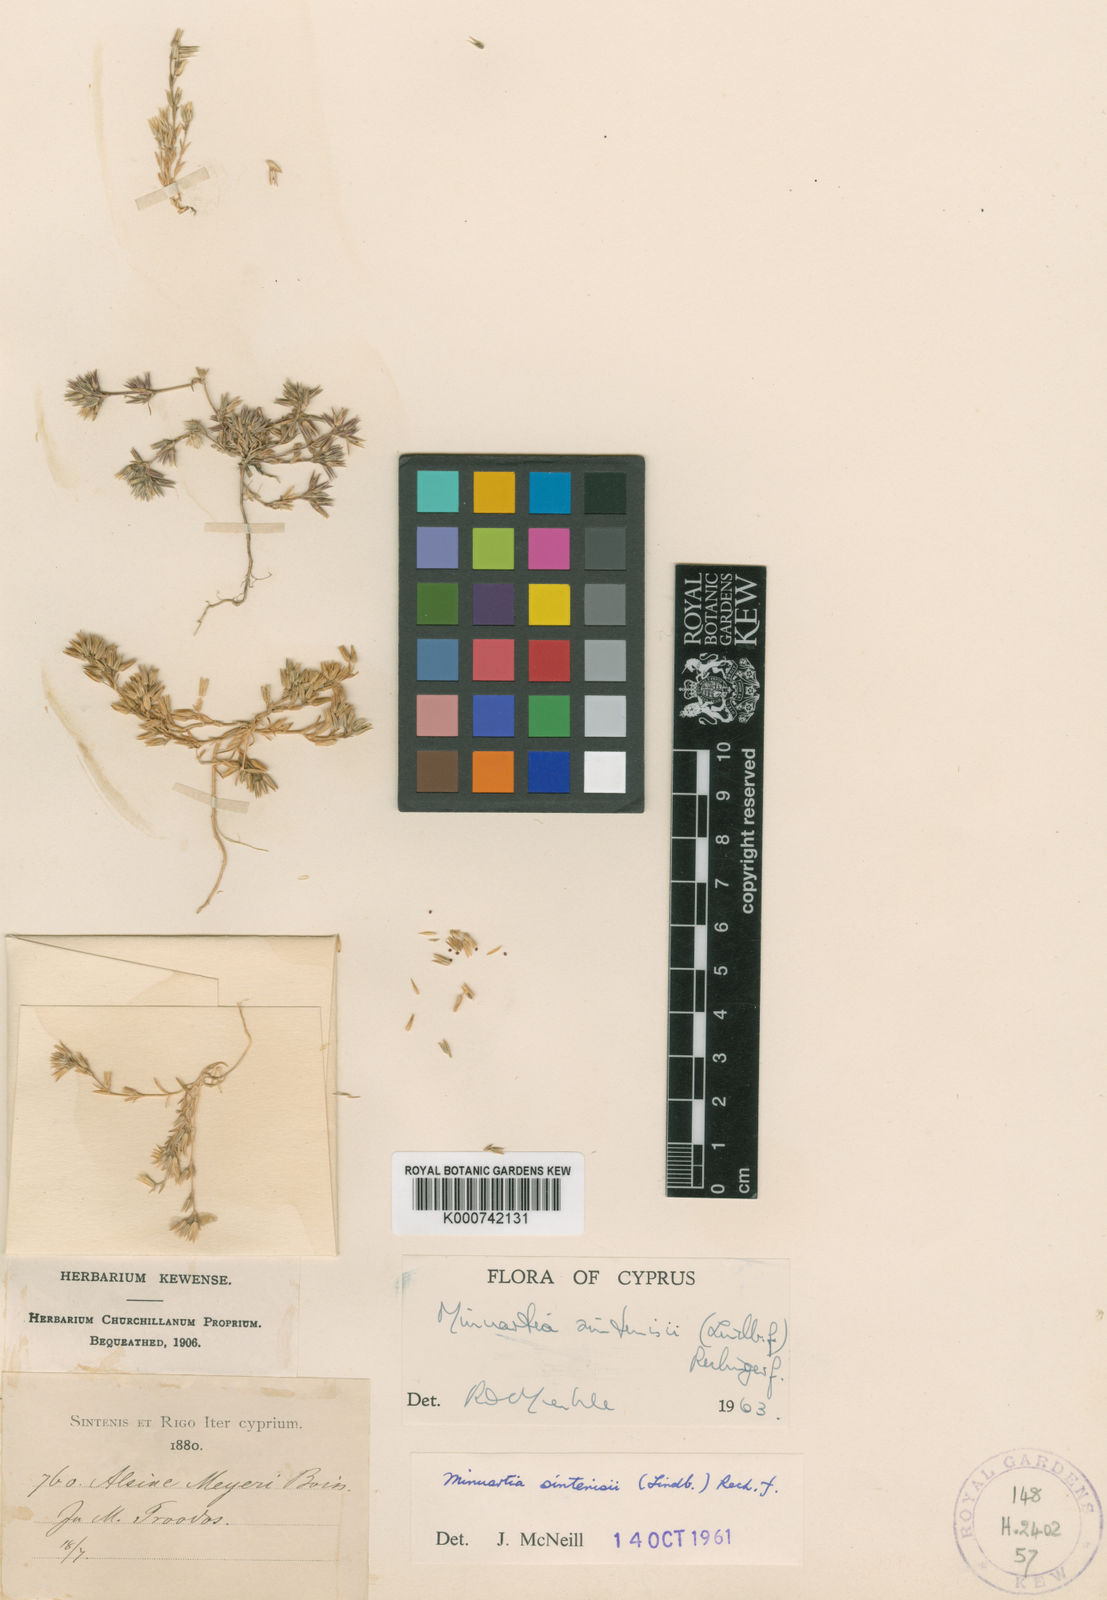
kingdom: Plantae
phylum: Tracheophyta
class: Magnoliopsida
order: Caryophyllales
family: Caryophyllaceae
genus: Minuartia
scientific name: Minuartia meyeri
